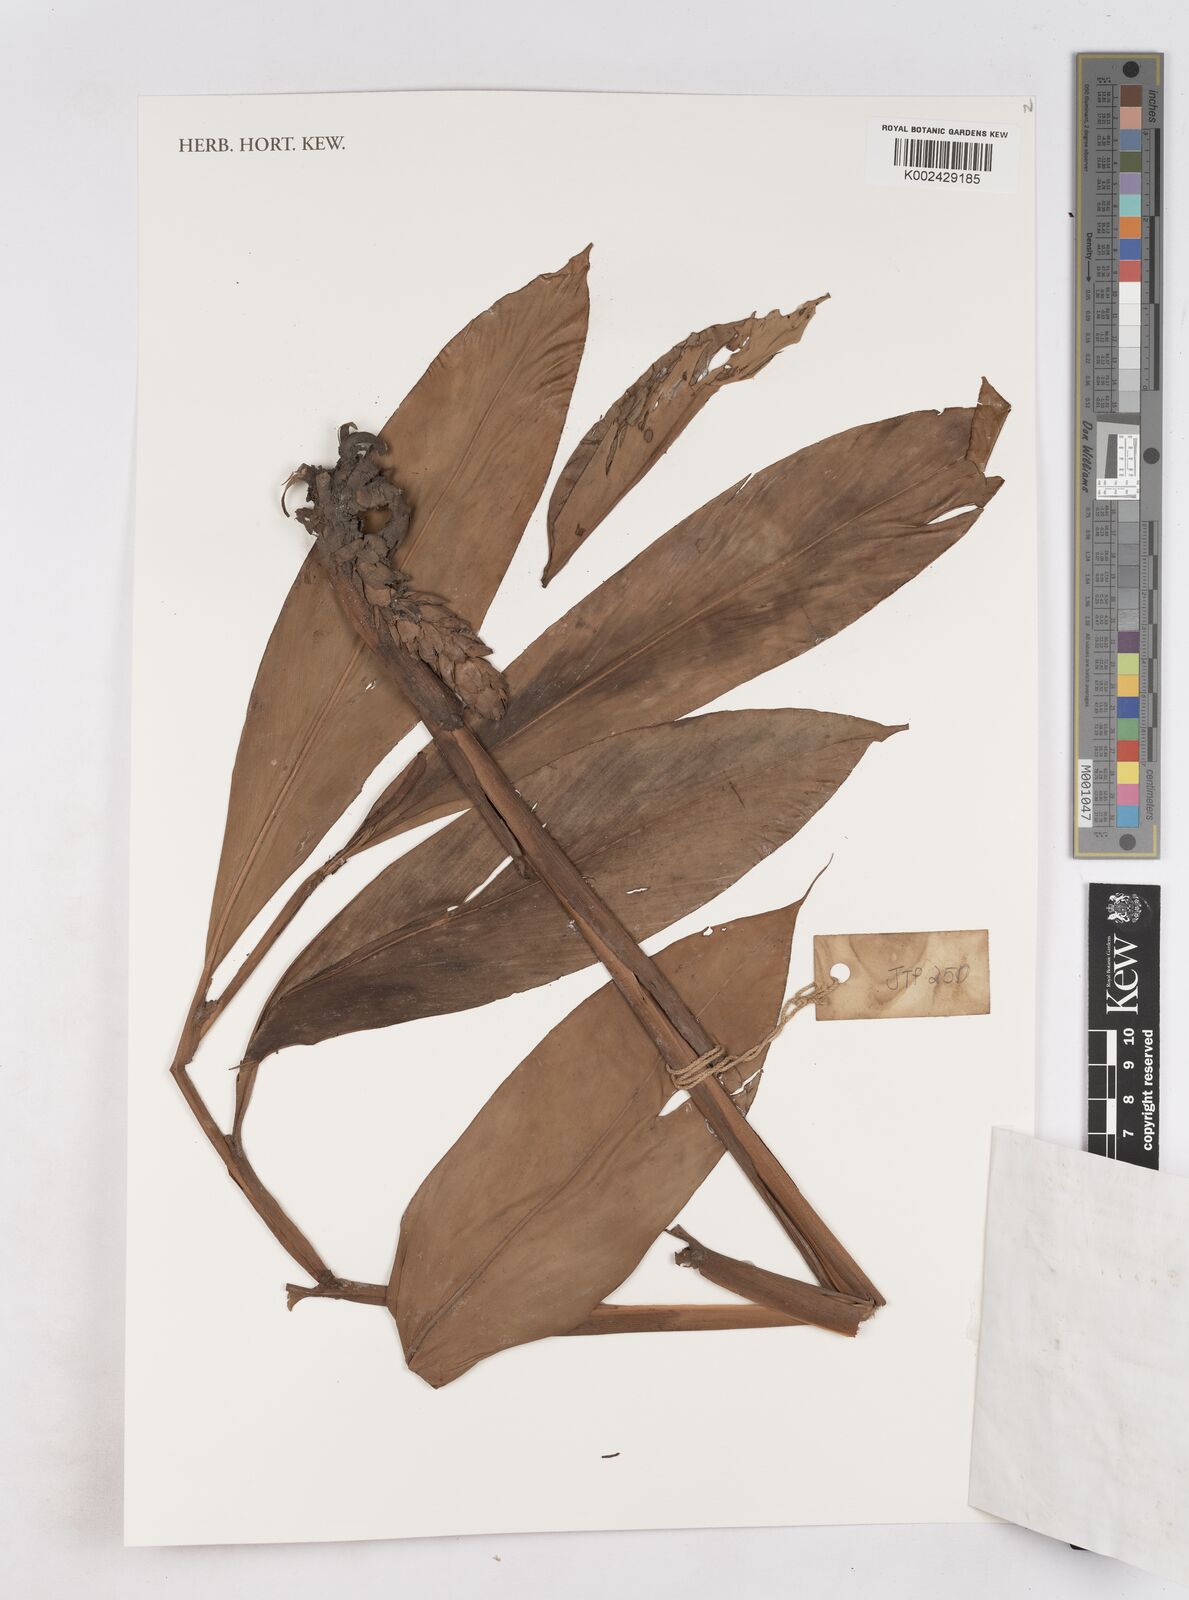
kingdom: Plantae
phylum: Tracheophyta
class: Liliopsida
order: Zingiberales
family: Zingiberaceae
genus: Zingiber
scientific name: Zingiber
